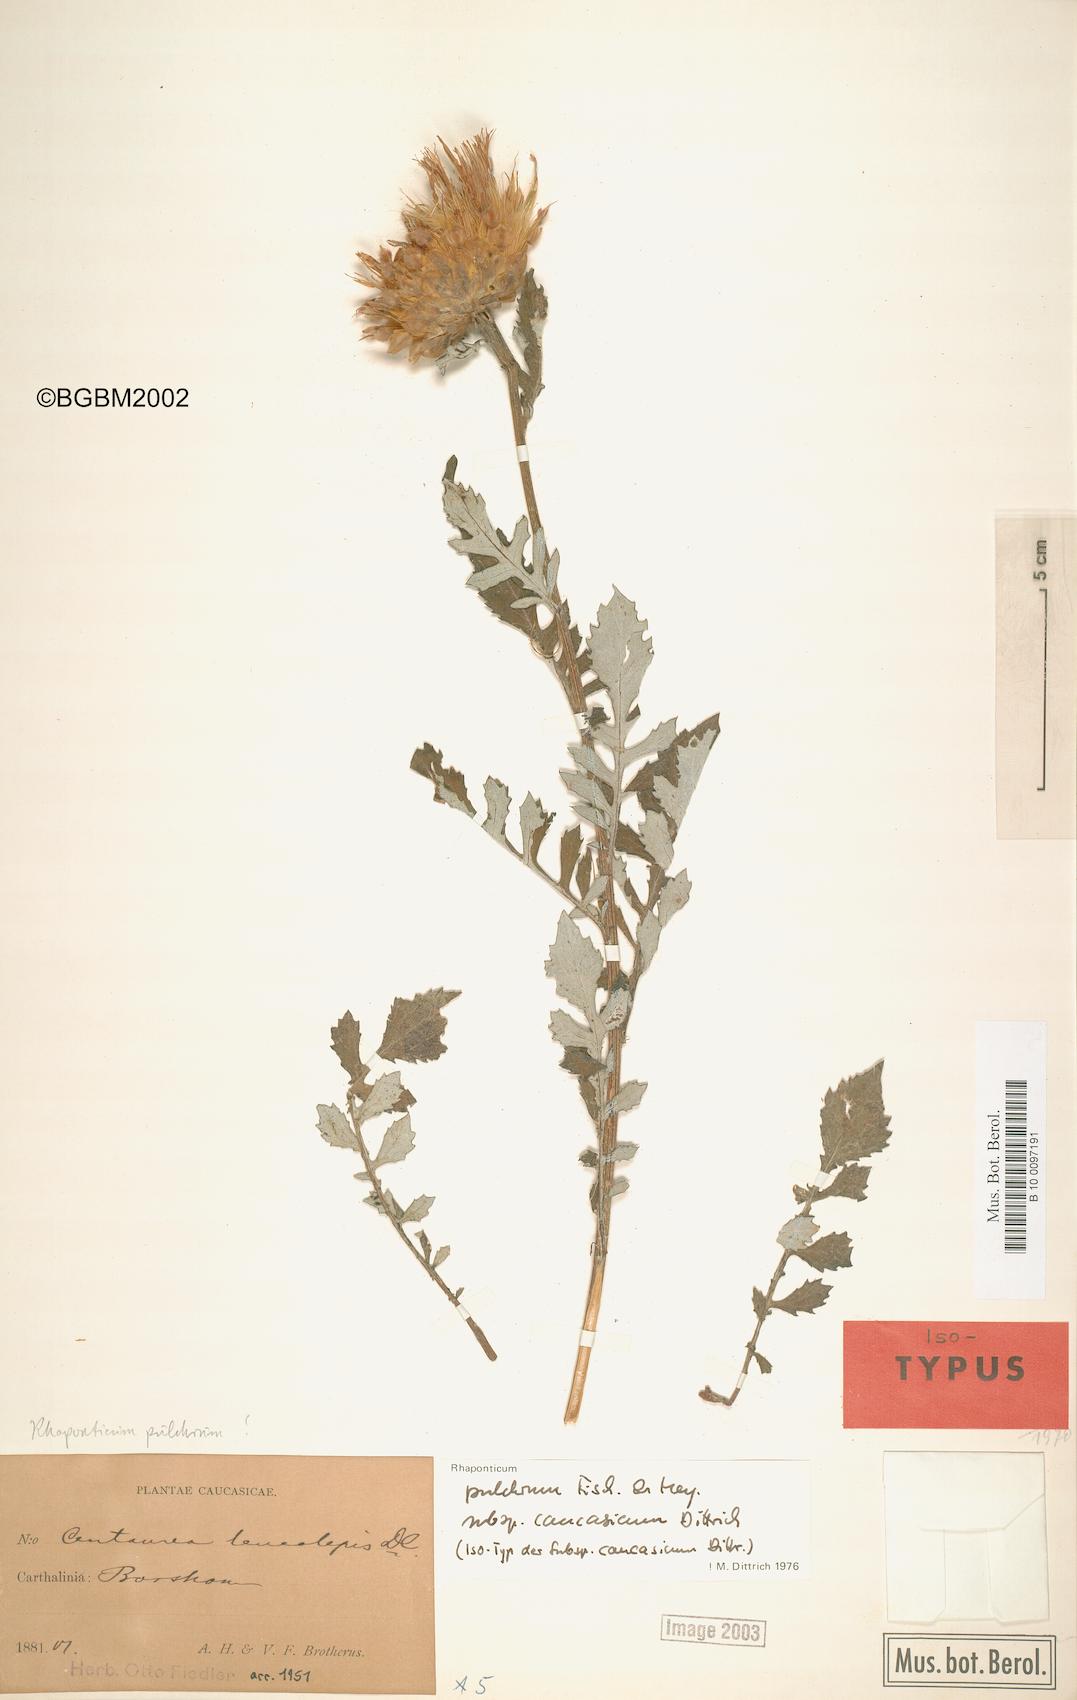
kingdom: Plantae
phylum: Tracheophyta
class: Magnoliopsida
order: Asterales
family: Asteraceae
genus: Leuzea
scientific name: Leuzea pulchra
